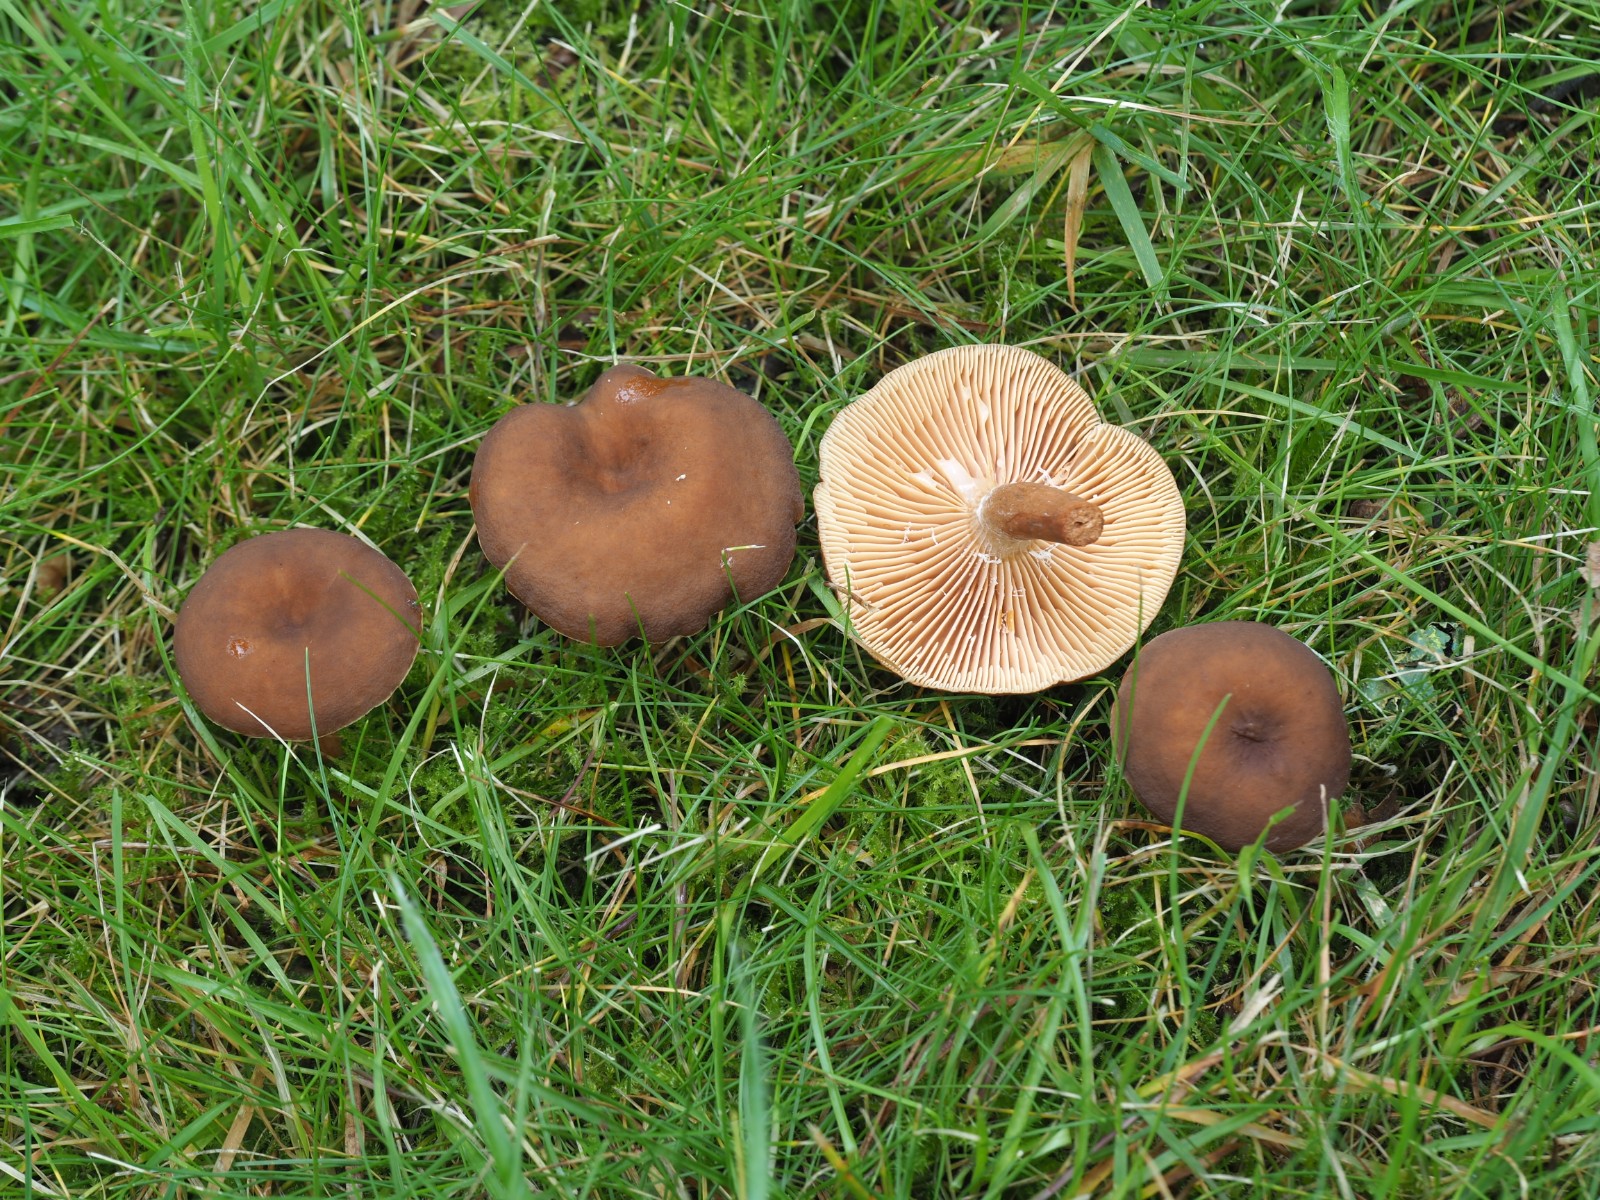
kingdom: Fungi
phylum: Basidiomycota
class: Agaricomycetes
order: Russulales
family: Russulaceae
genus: Lactarius
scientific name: Lactarius serifluus
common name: tæge-mælkehat
